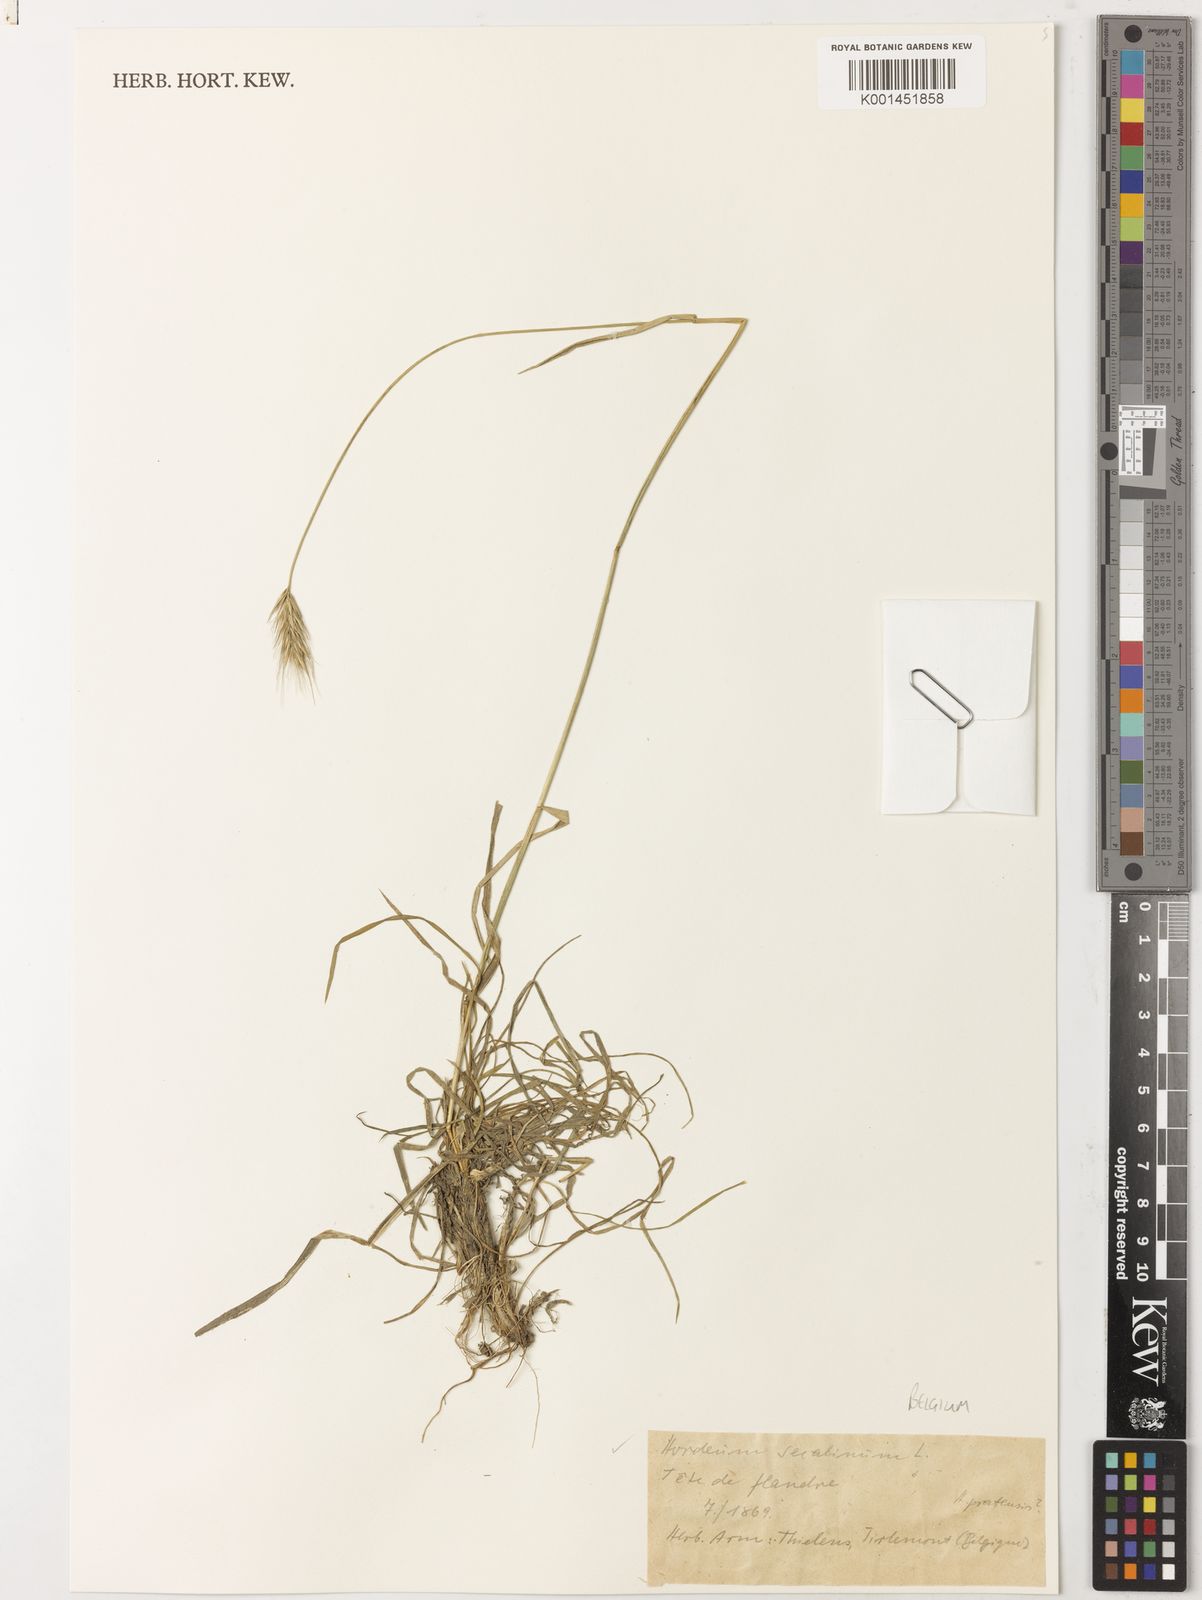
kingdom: Plantae
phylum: Tracheophyta
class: Liliopsida
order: Poales
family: Poaceae
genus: Hordeum
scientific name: Hordeum
